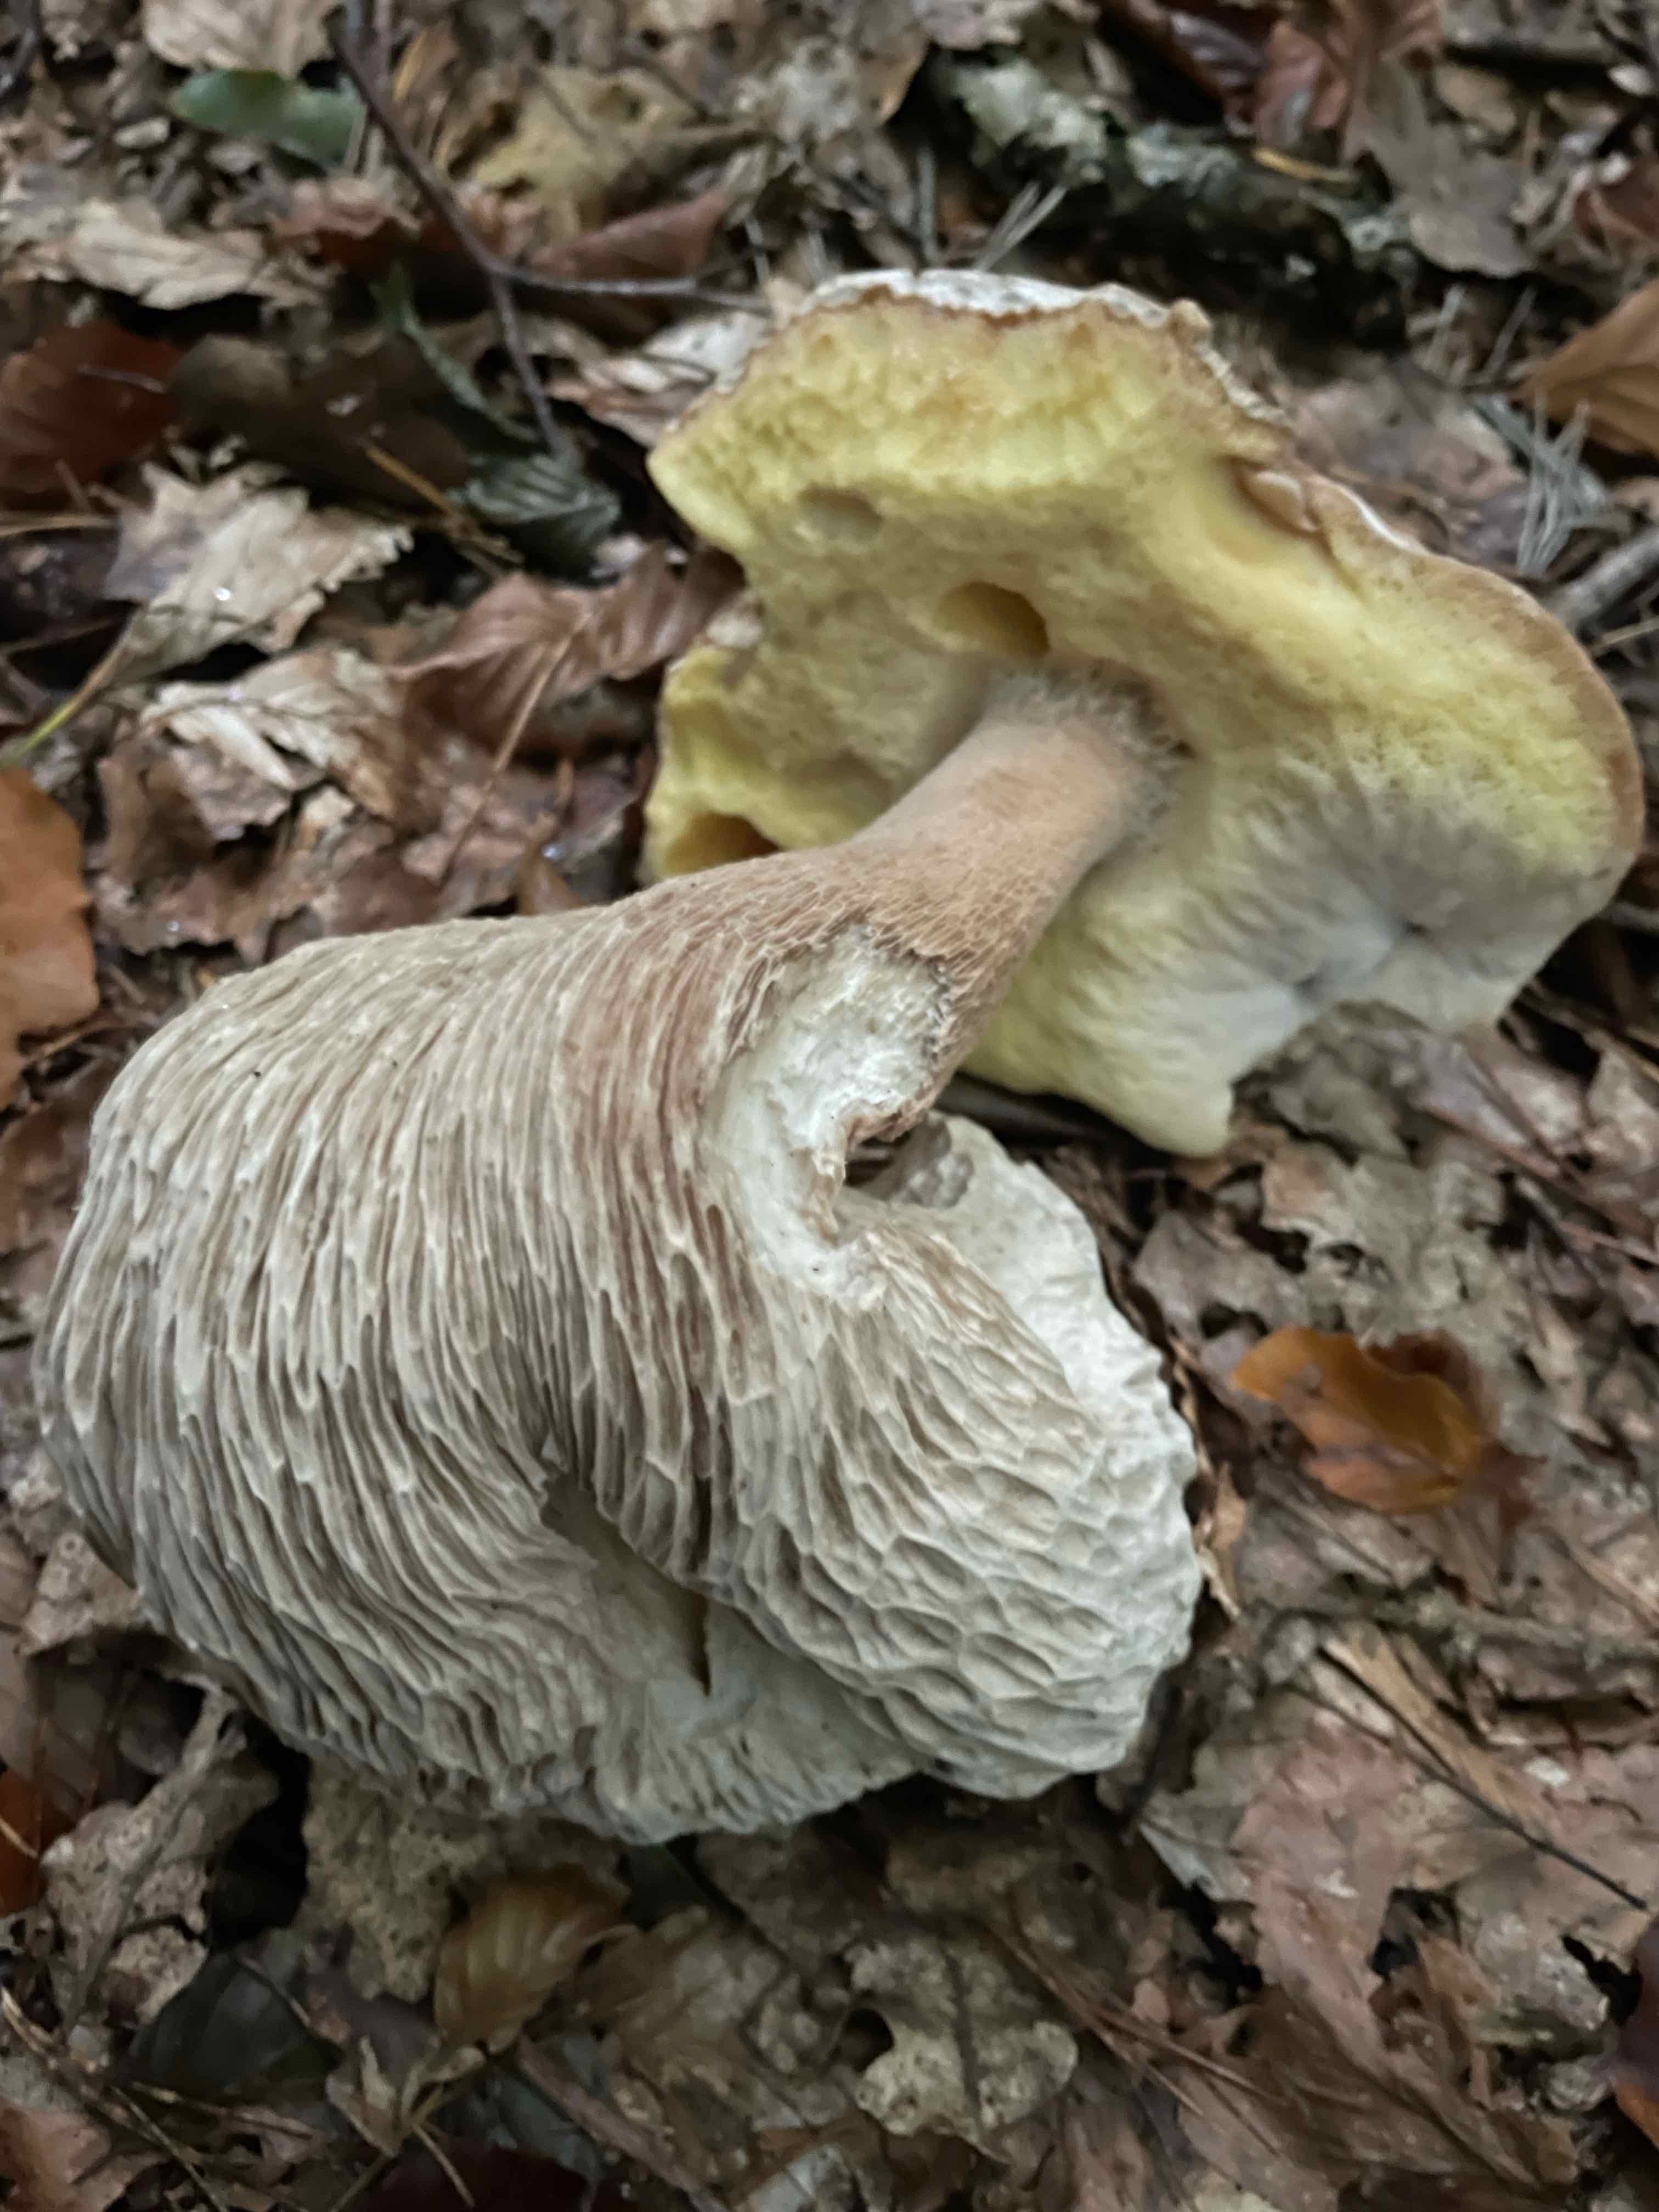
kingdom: Fungi
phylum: Basidiomycota
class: Agaricomycetes
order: Boletales
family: Boletaceae
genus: Boletus
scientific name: Boletus edulis
